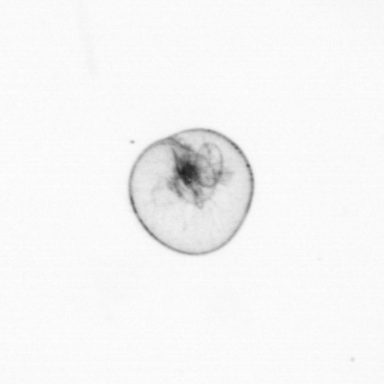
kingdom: Chromista
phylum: Myzozoa
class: Dinophyceae
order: Noctilucales
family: Noctilucaceae
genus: Noctiluca
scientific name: Noctiluca scintillans
